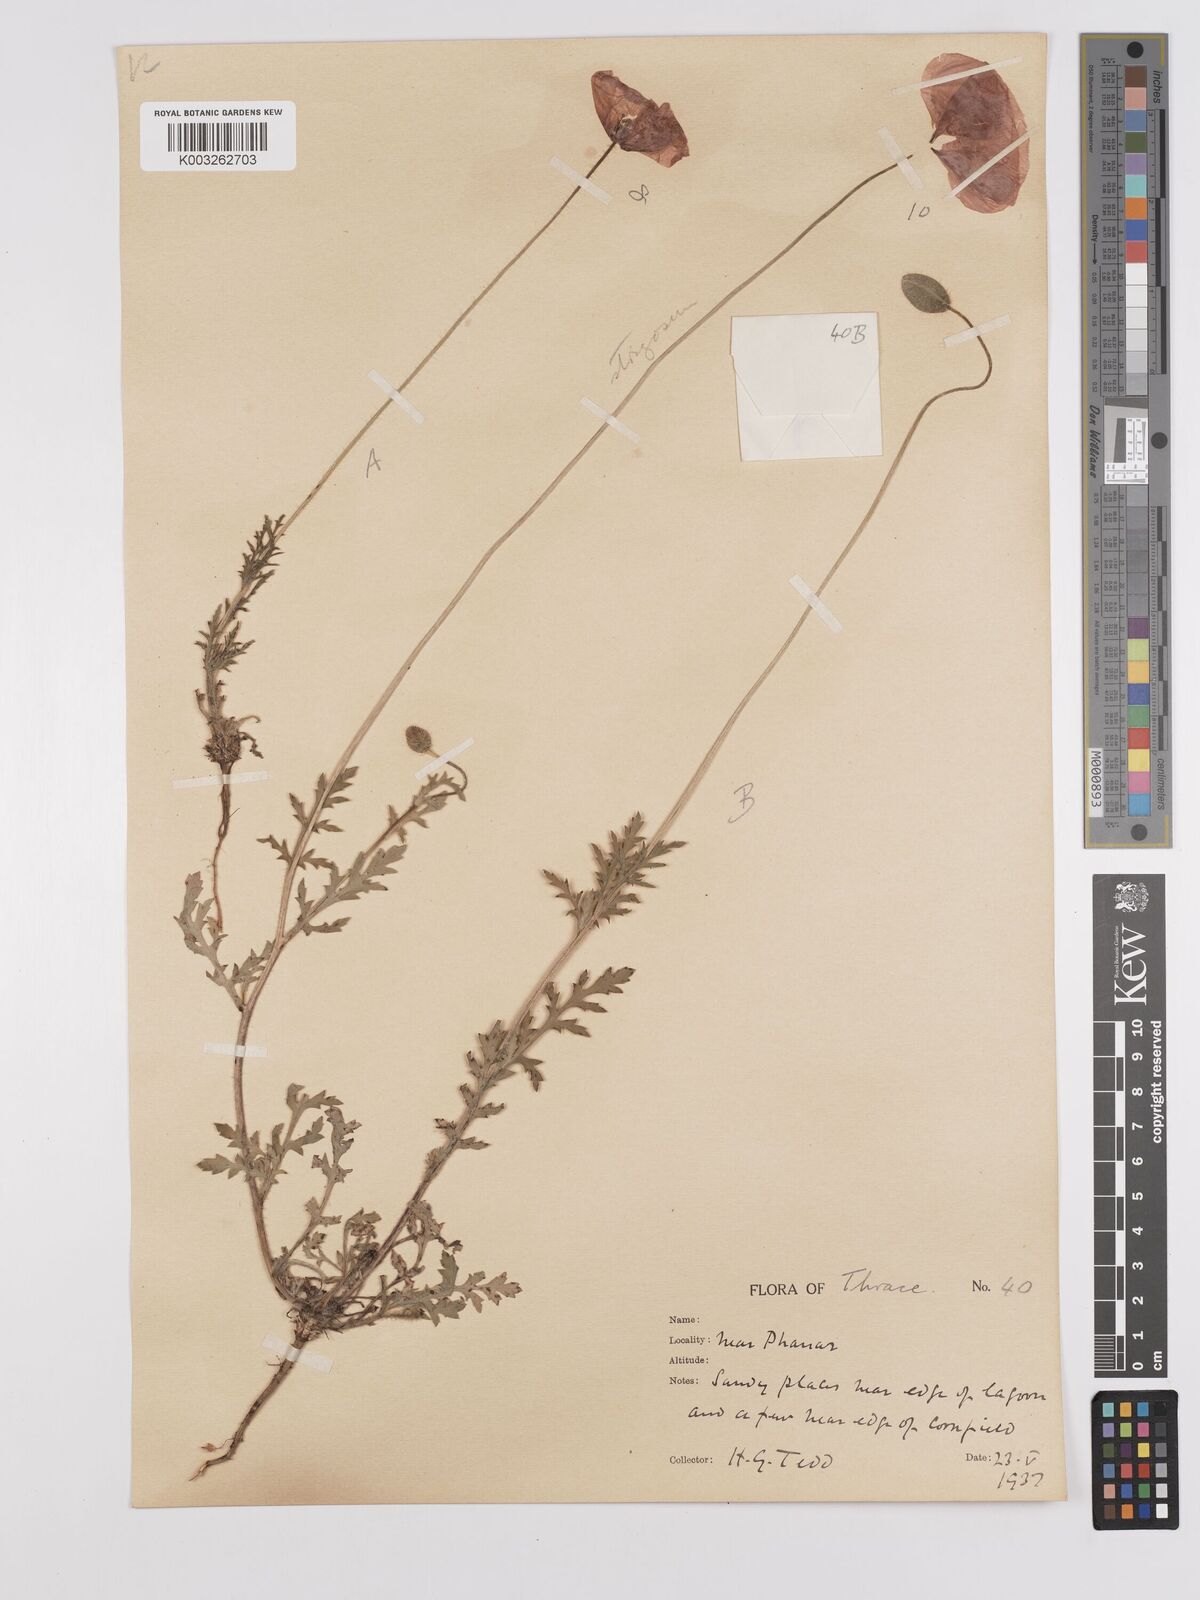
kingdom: Plantae
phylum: Tracheophyta
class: Magnoliopsida
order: Ranunculales
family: Papaveraceae
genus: Papaver
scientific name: Papaver
